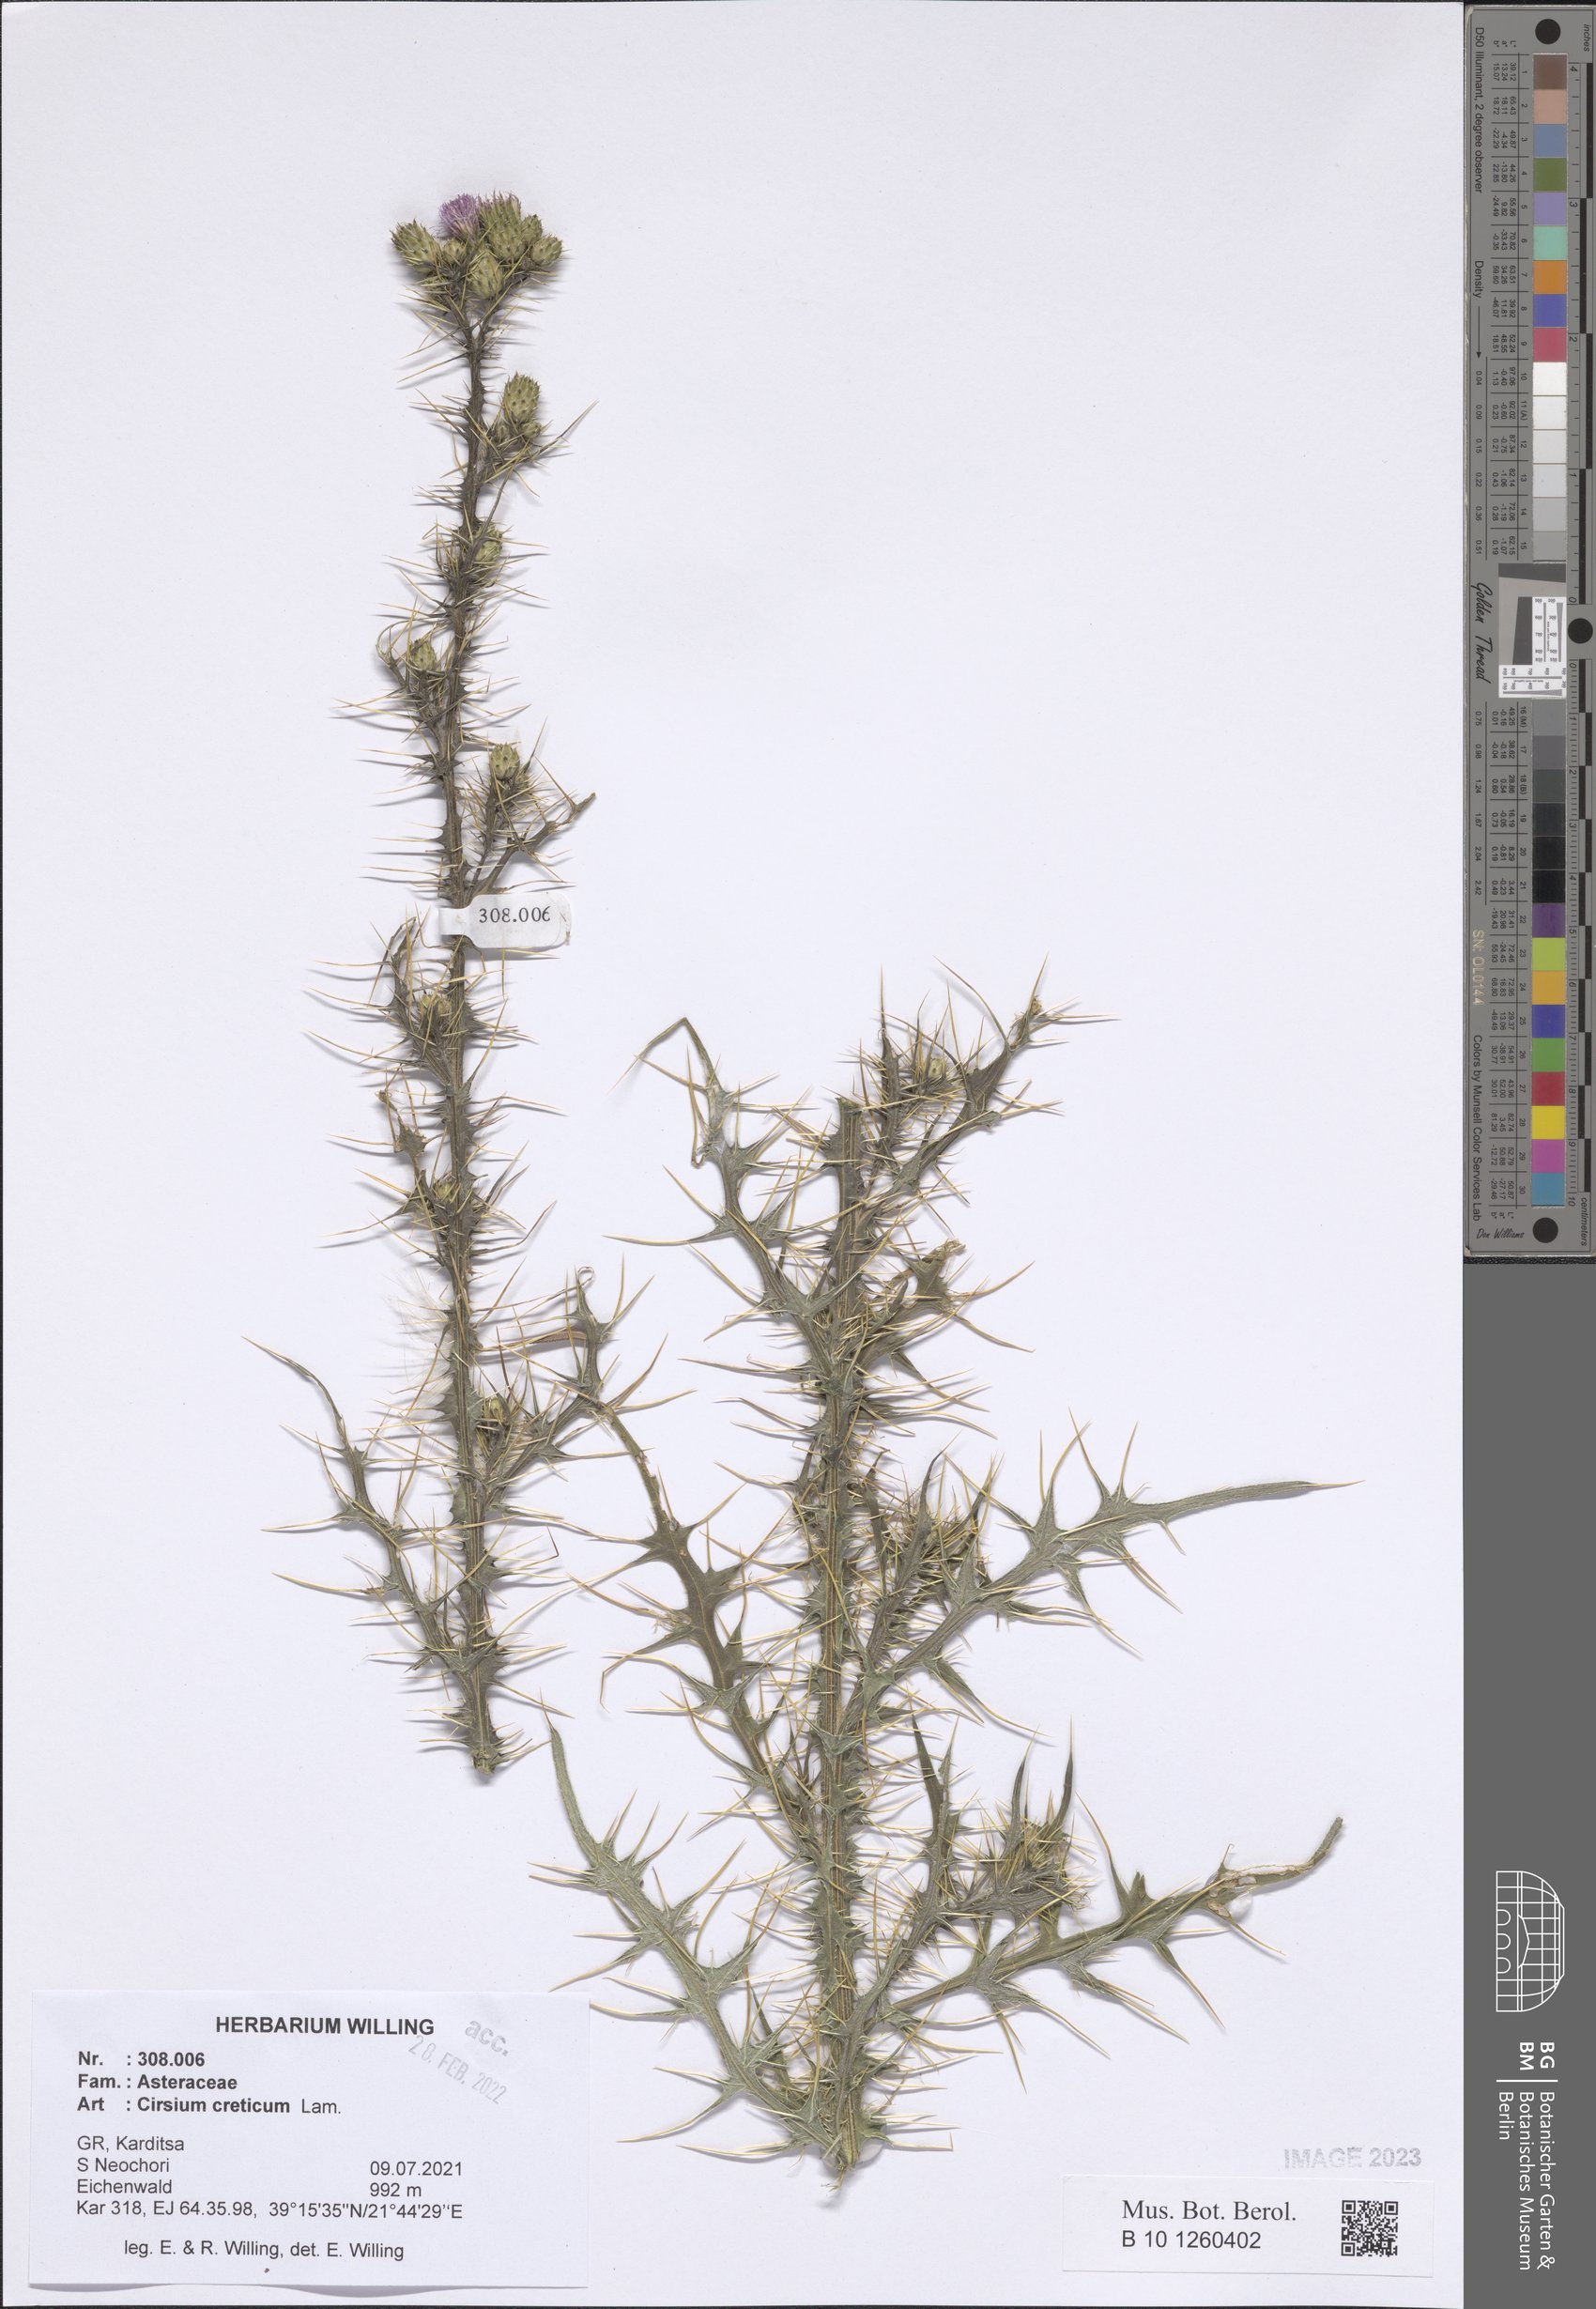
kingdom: Plantae
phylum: Tracheophyta
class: Magnoliopsida
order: Asterales
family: Asteraceae
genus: Cirsium
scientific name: Cirsium creticum
